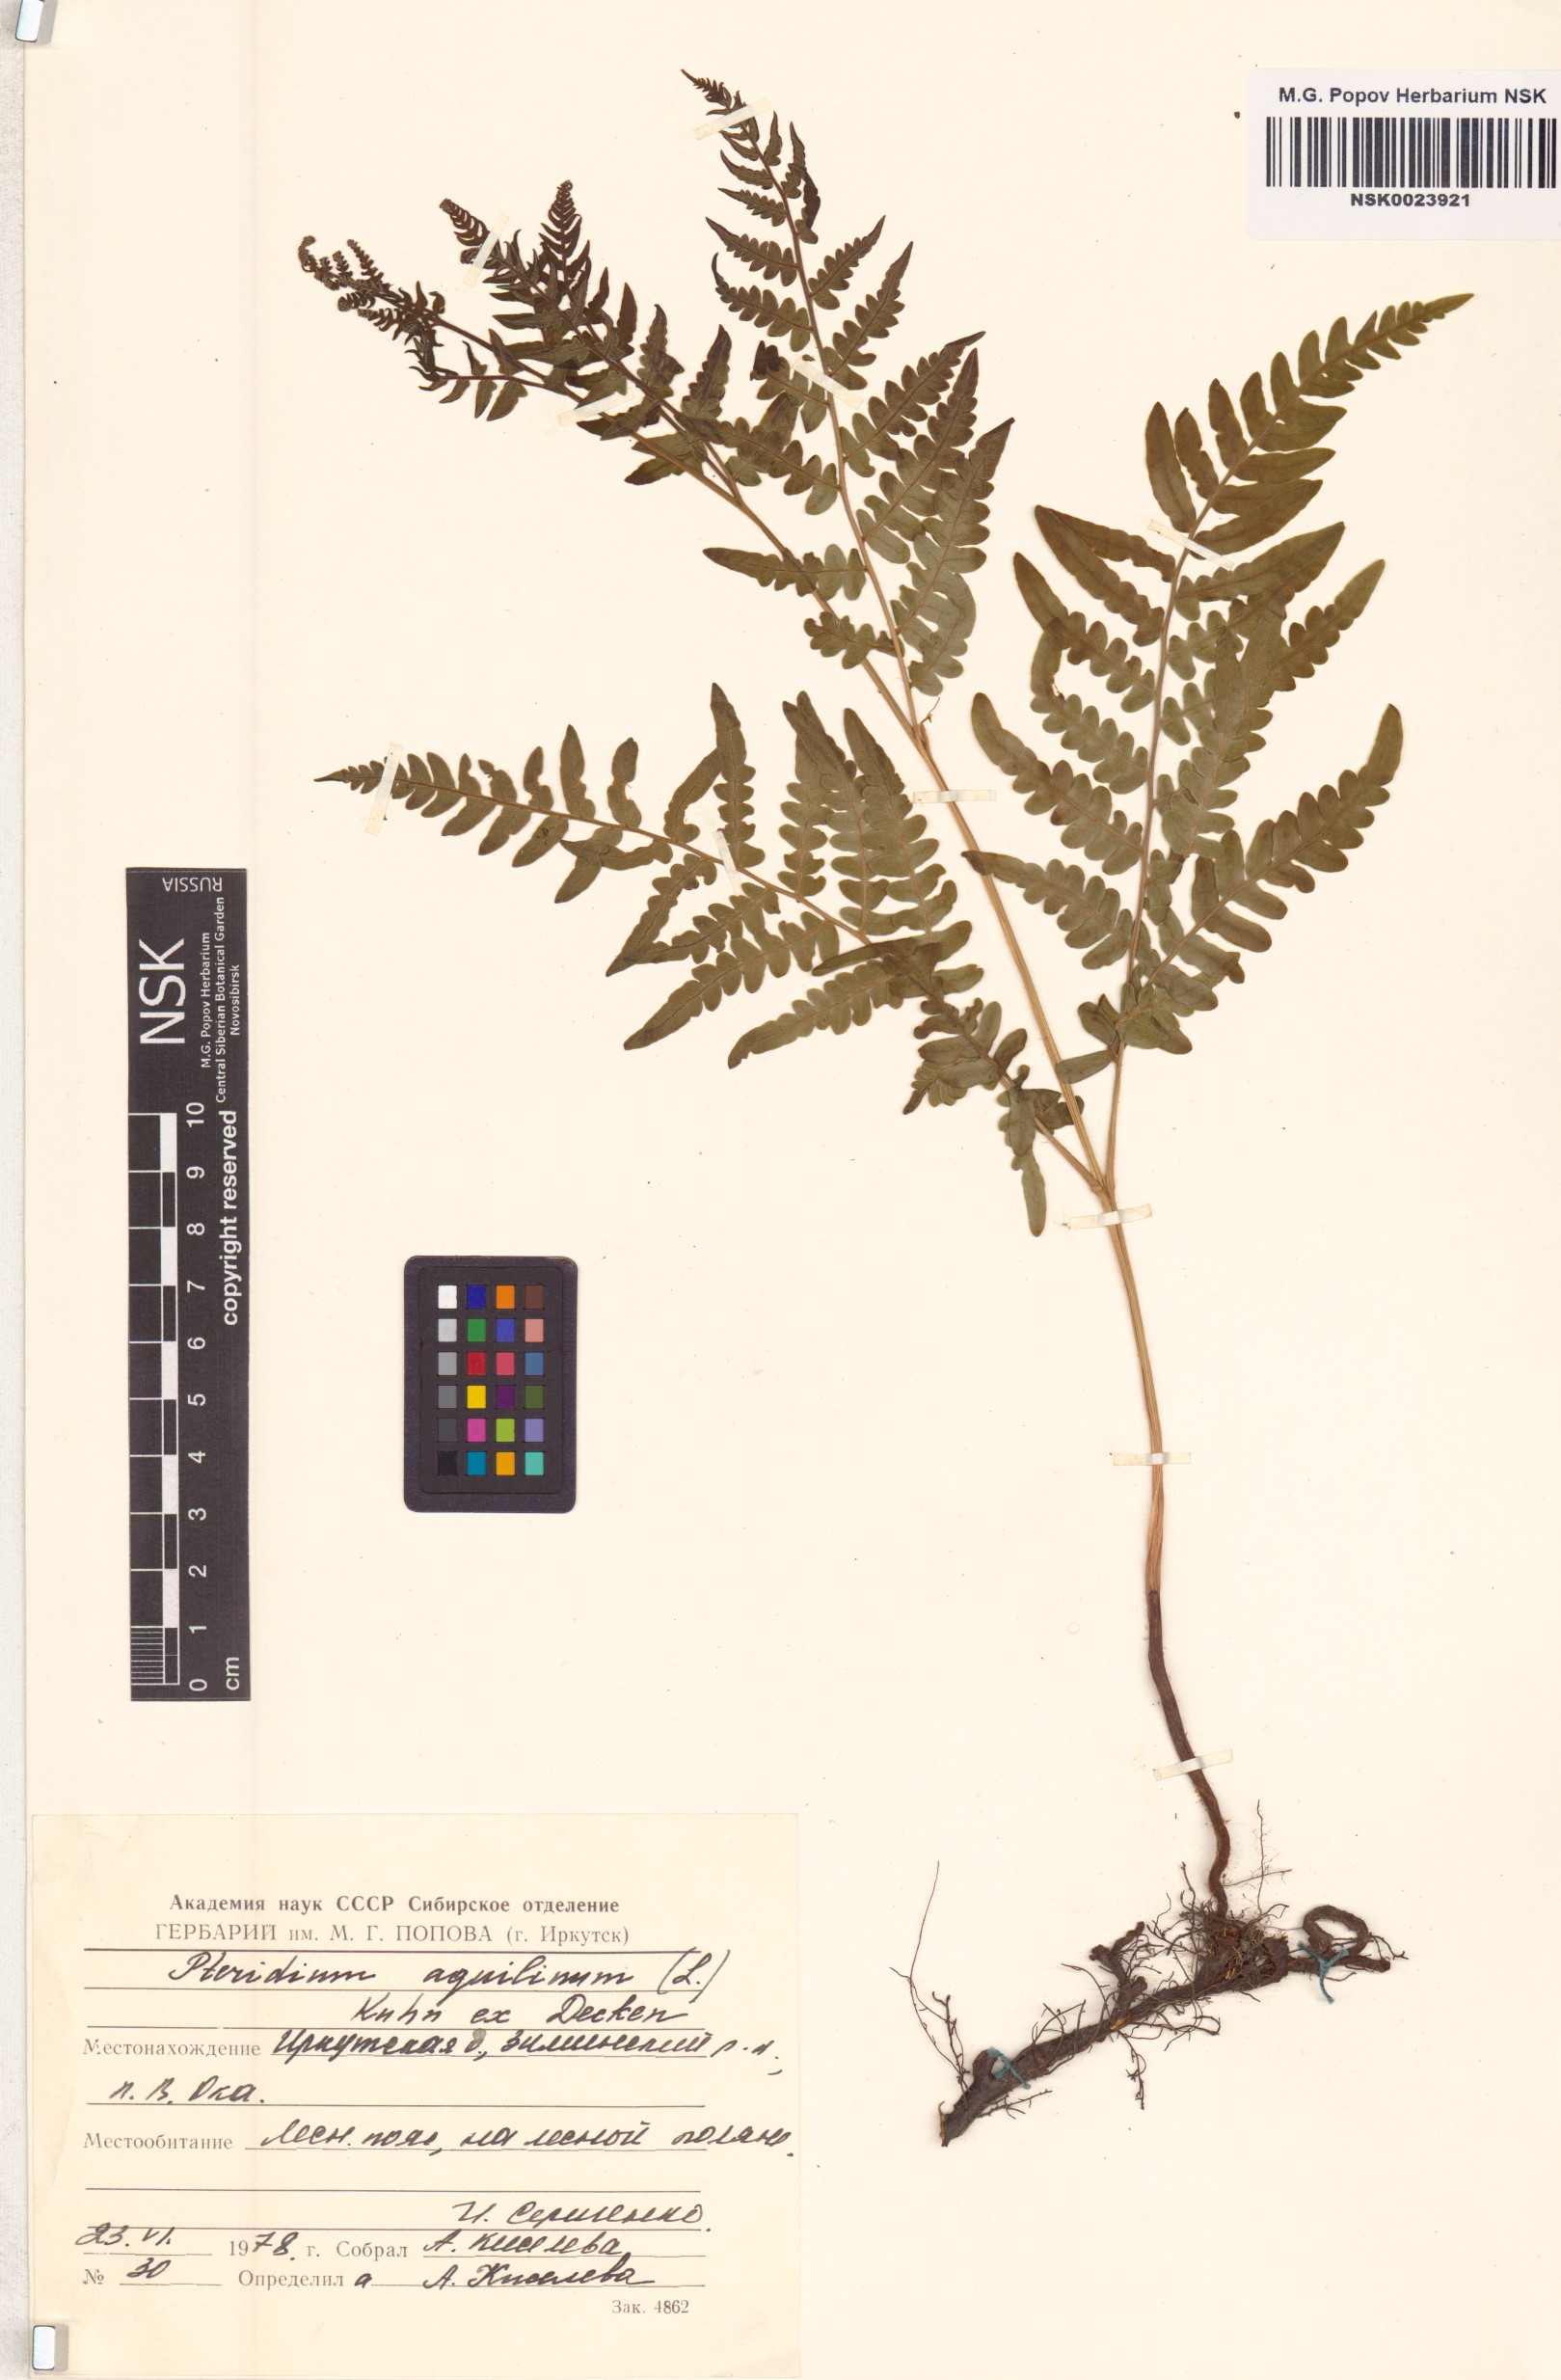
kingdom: Plantae
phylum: Tracheophyta
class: Polypodiopsida
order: Polypodiales
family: Dennstaedtiaceae
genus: Pteridium
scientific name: Pteridium aquilinum
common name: Bracken
